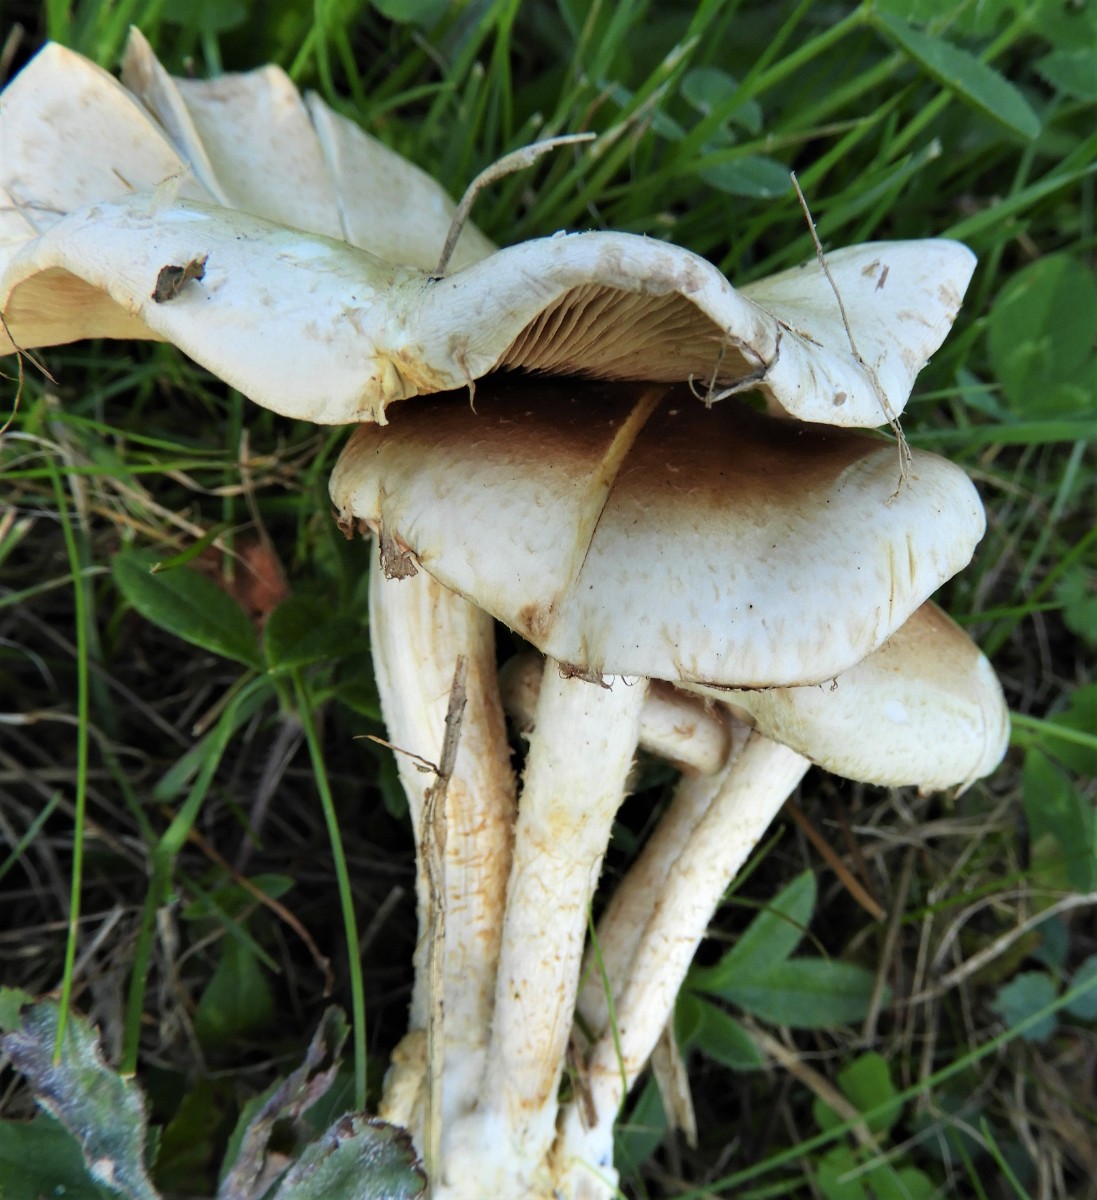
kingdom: Fungi
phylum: Basidiomycota
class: Agaricomycetes
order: Agaricales
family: Strophariaceae
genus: Pholiota
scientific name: Pholiota gummosa
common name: grøngul skælhat
